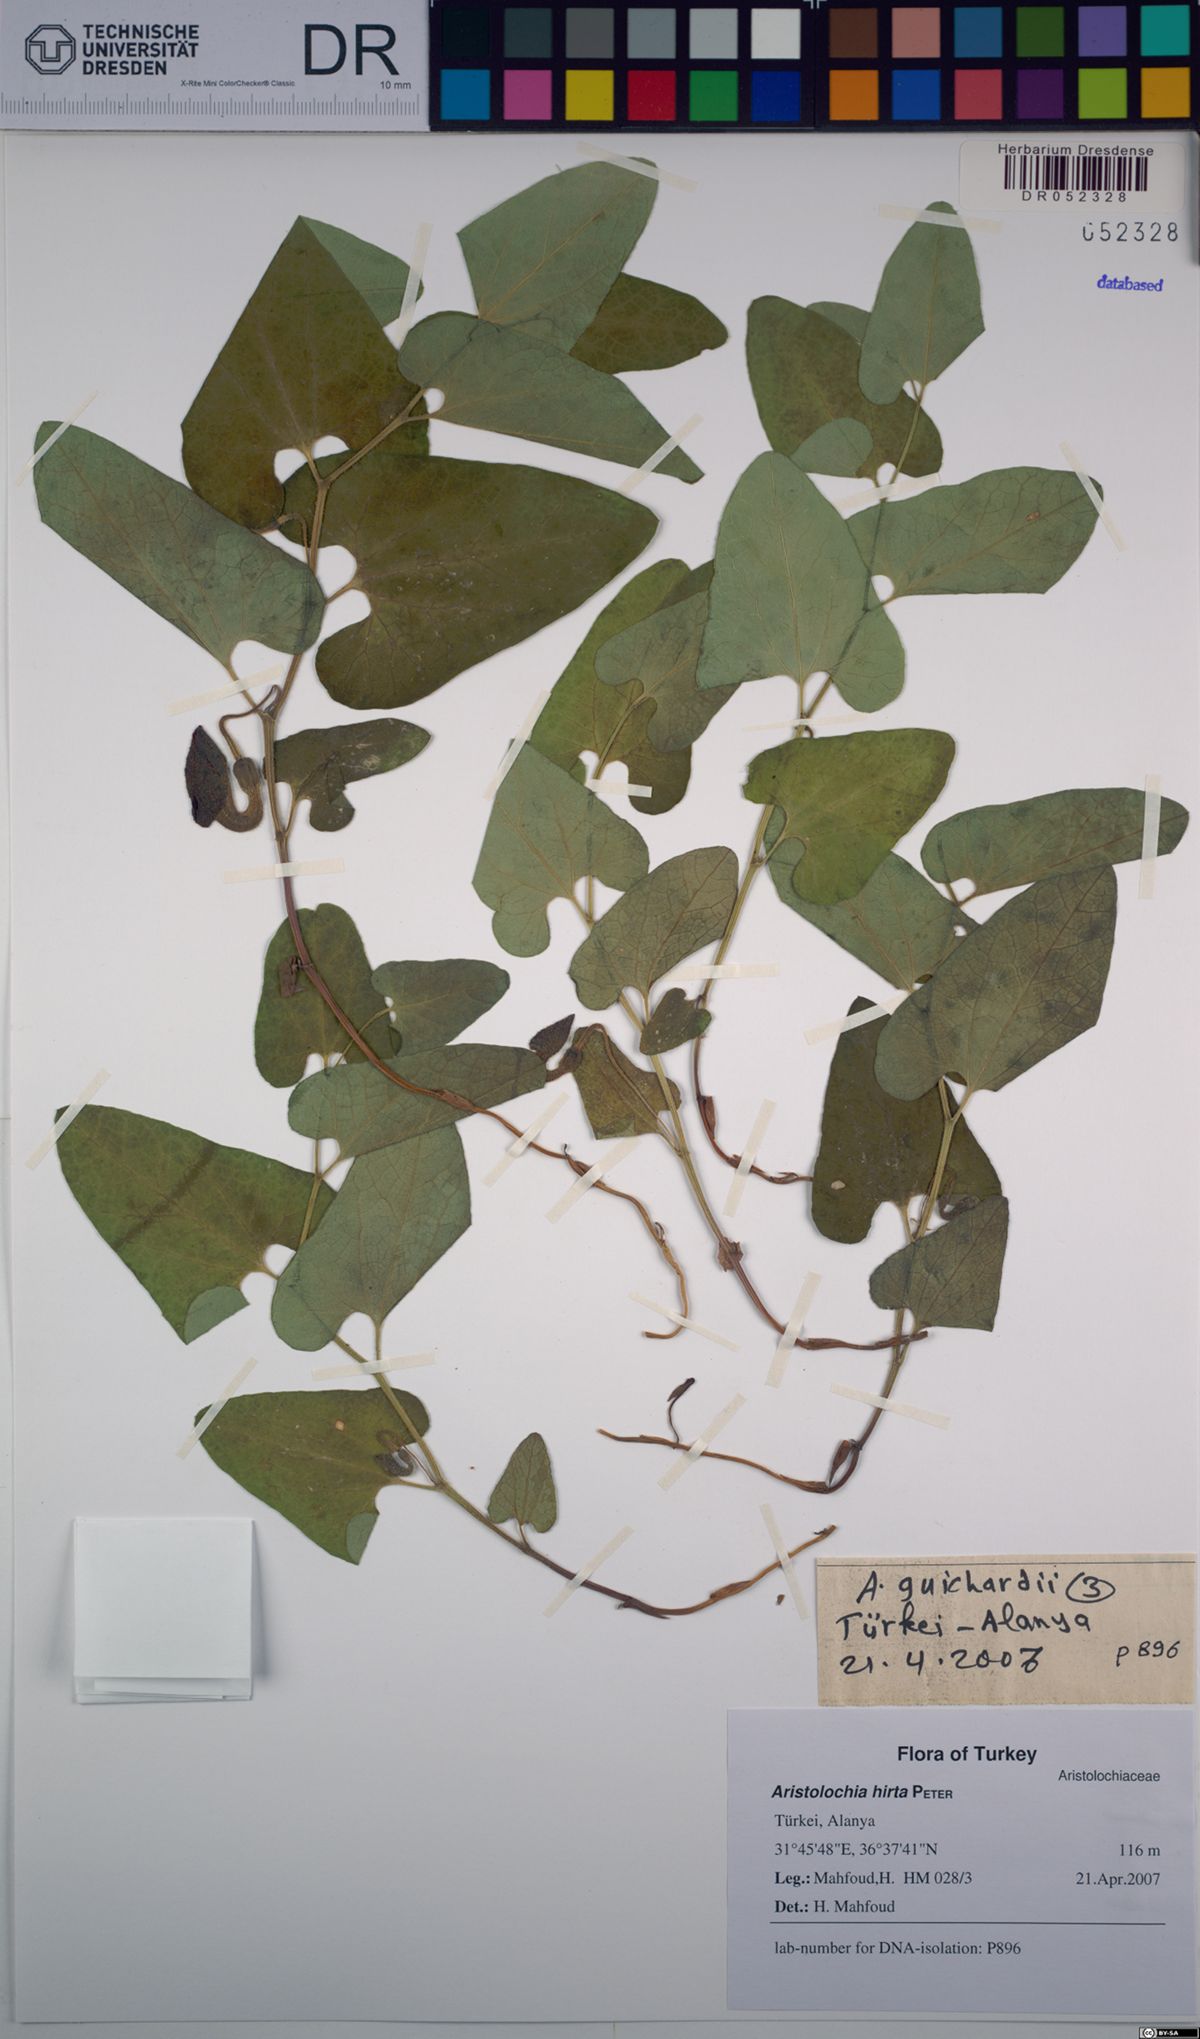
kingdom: Plantae
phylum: Tracheophyta
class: Magnoliopsida
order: Piperales
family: Aristolochiaceae
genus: Aristolochia
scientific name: Aristolochia hockii
